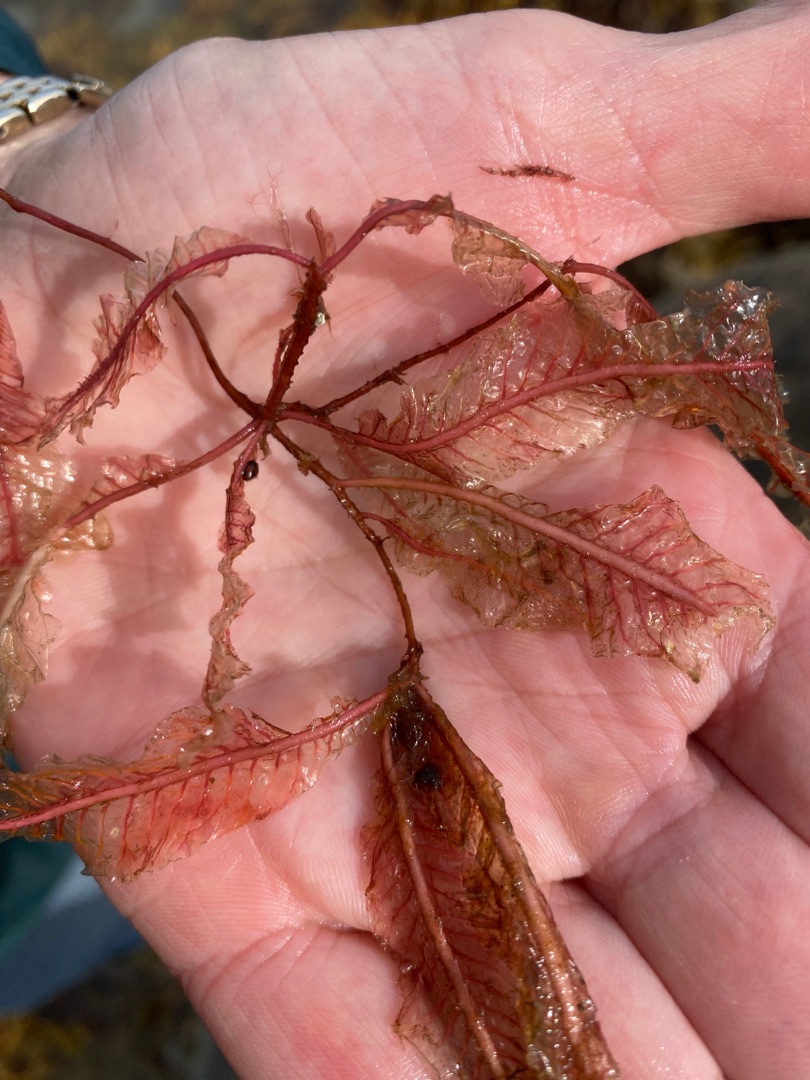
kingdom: Plantae
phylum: Rhodophyta
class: Florideophyceae
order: Ceramiales
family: Delesseriaceae
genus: Delesseria
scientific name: Delesseria sanguinea
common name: Blodrød ribbeblad
